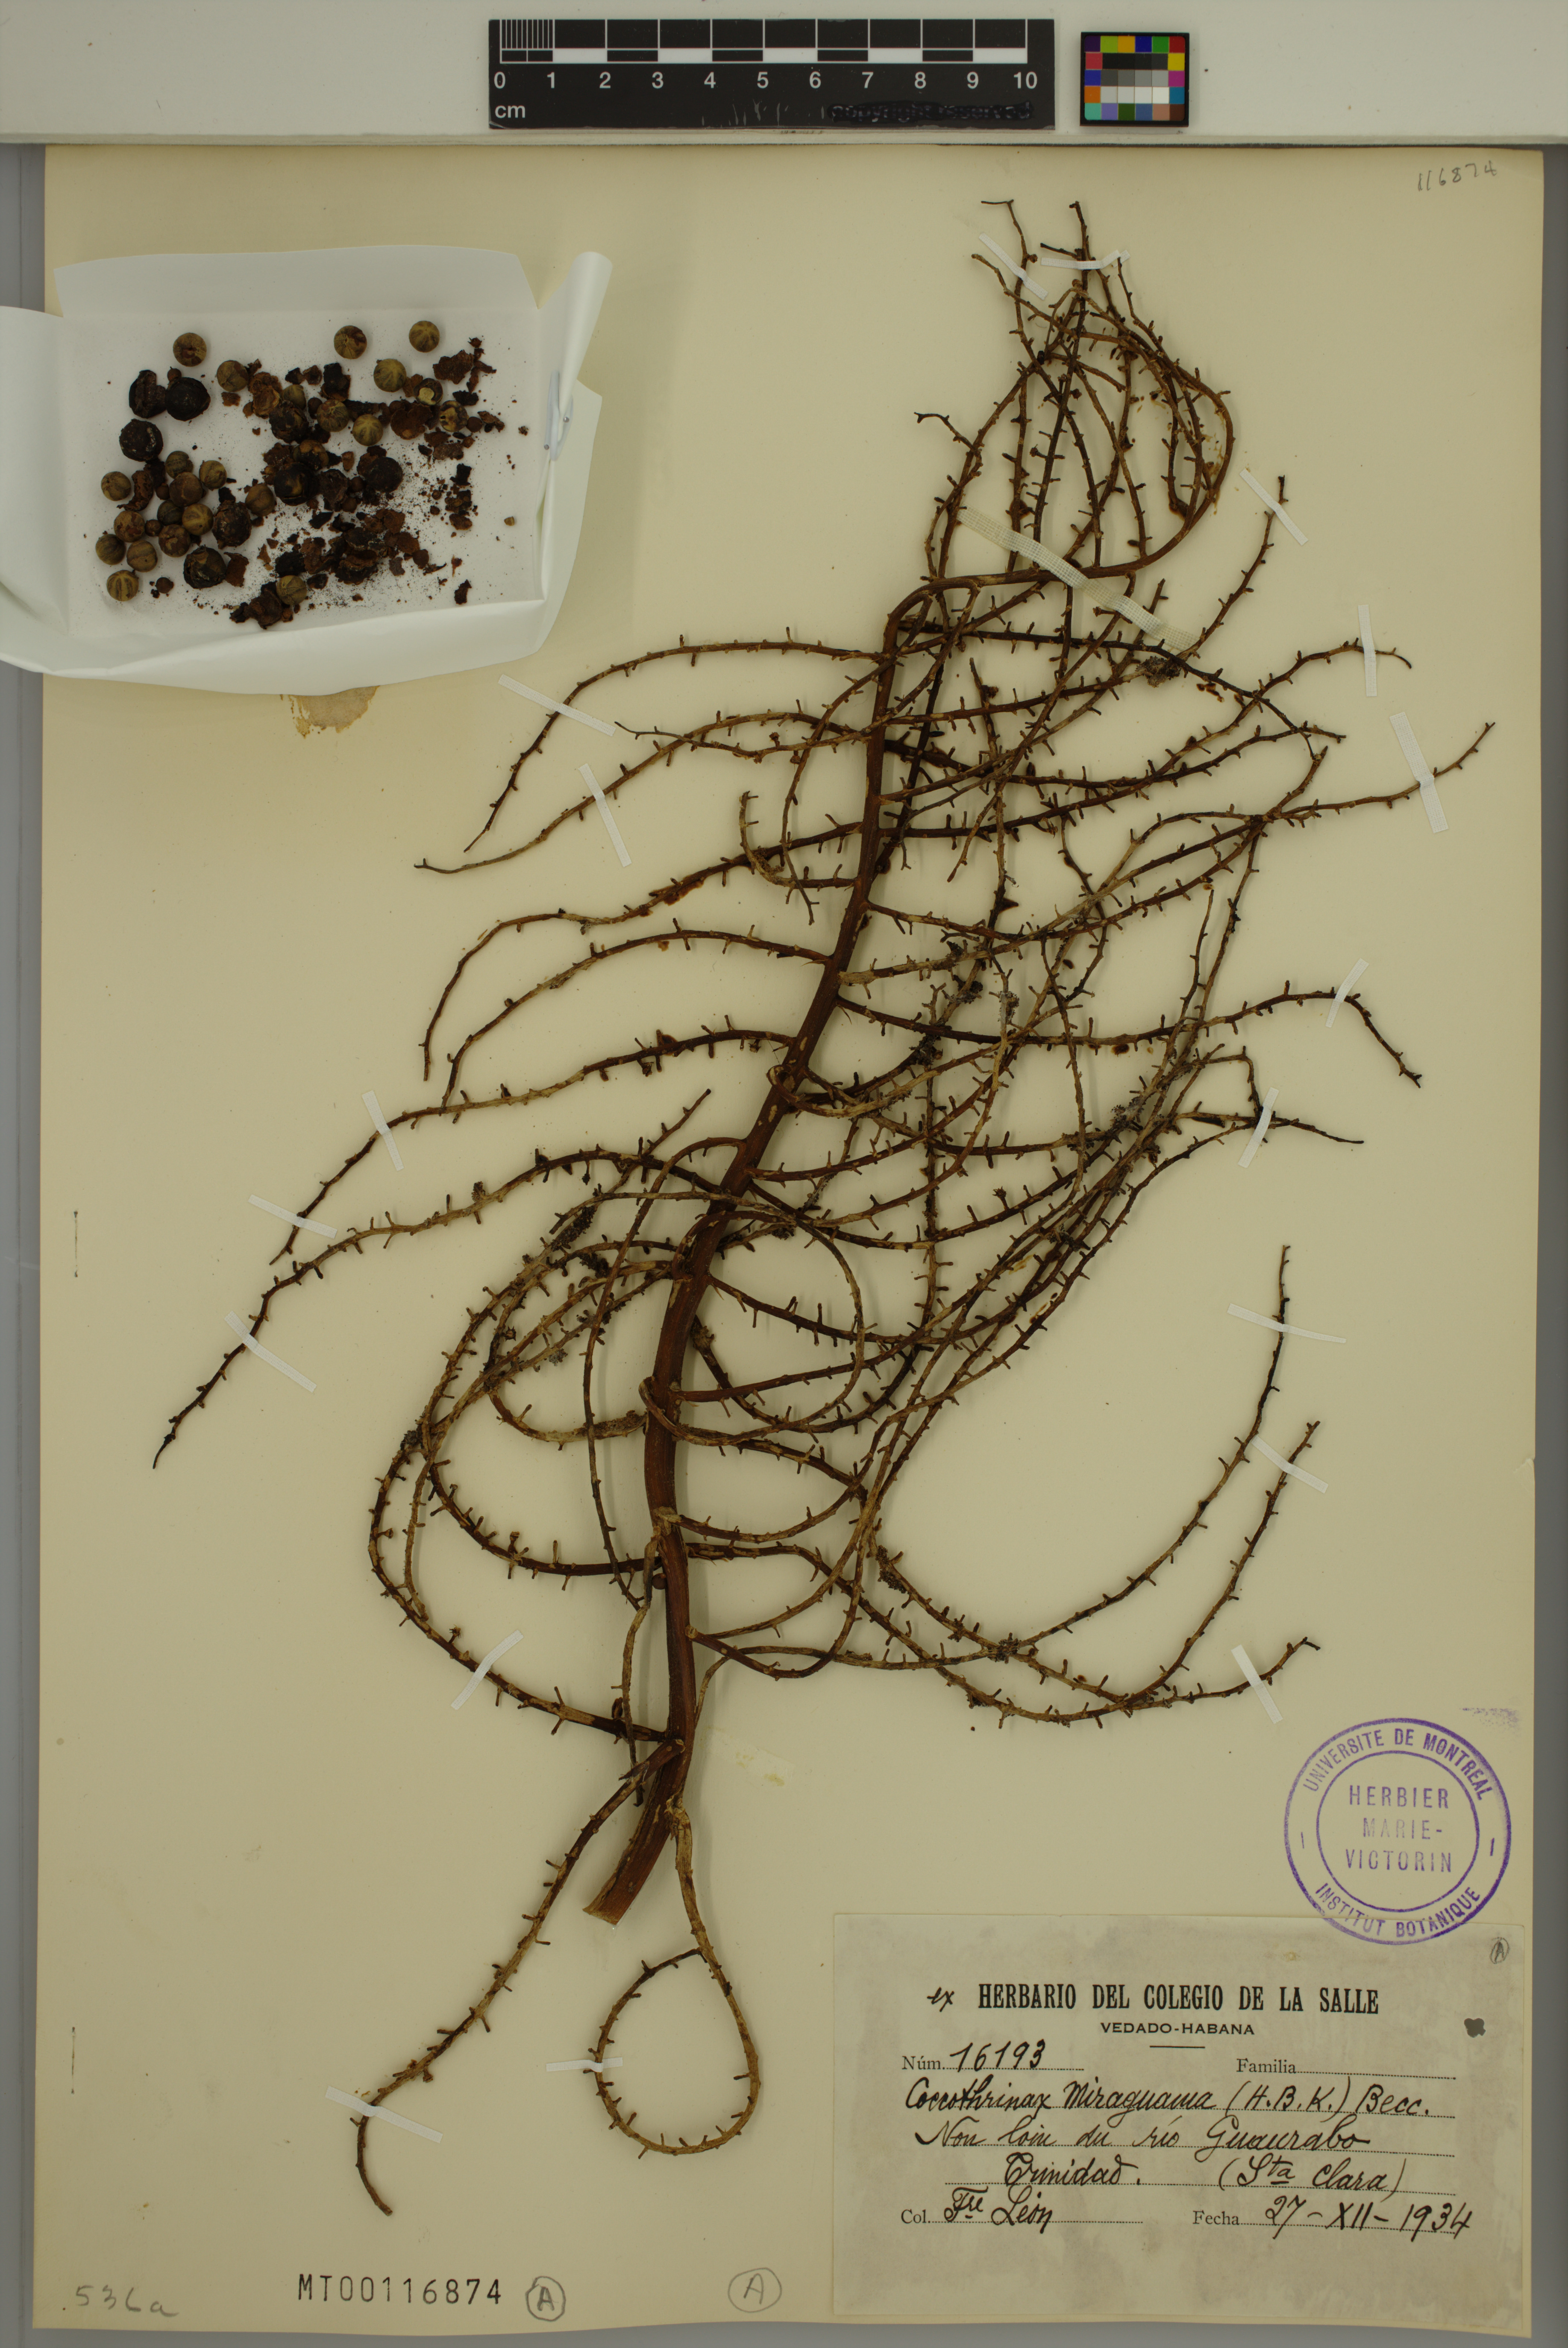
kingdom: Plantae
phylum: Tracheophyta
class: Liliopsida
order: Arecales
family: Arecaceae
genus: Coccothrinax
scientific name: Coccothrinax miraguama
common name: Miragua palm
